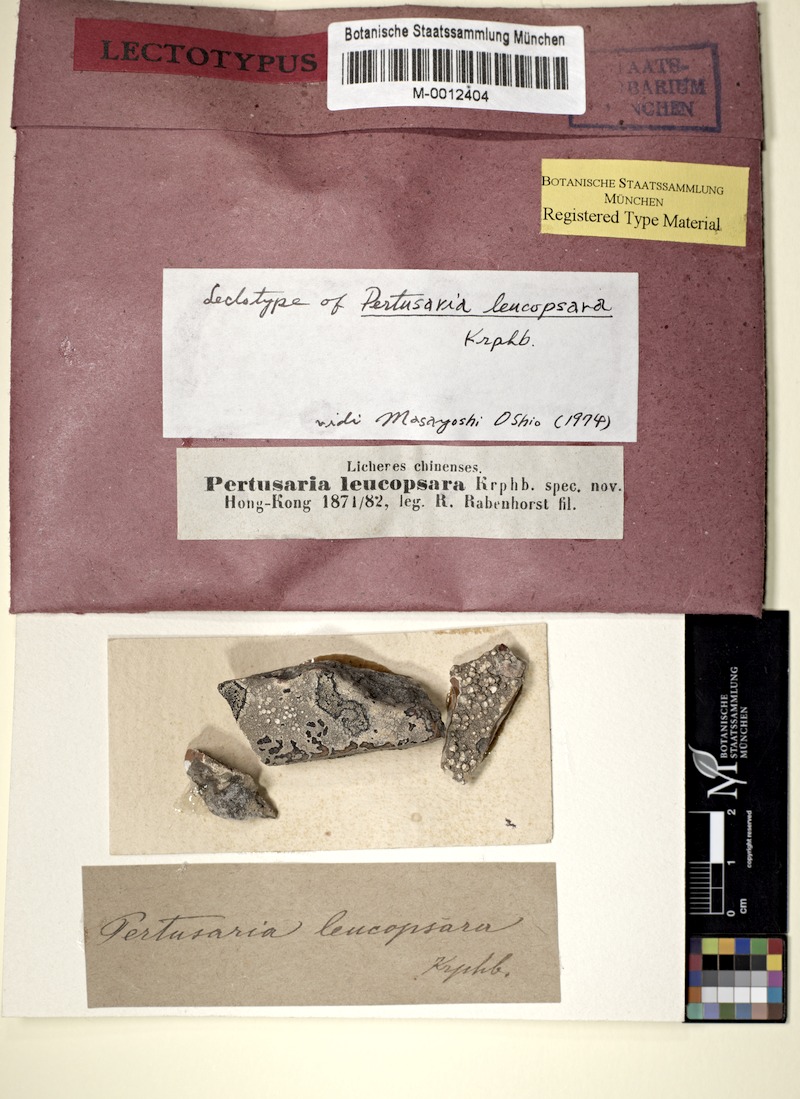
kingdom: Fungi
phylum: Ascomycota
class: Lecanoromycetes
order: Pertusariales
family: Pertusariaceae
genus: Lepra
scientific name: Lepra leucopsara
